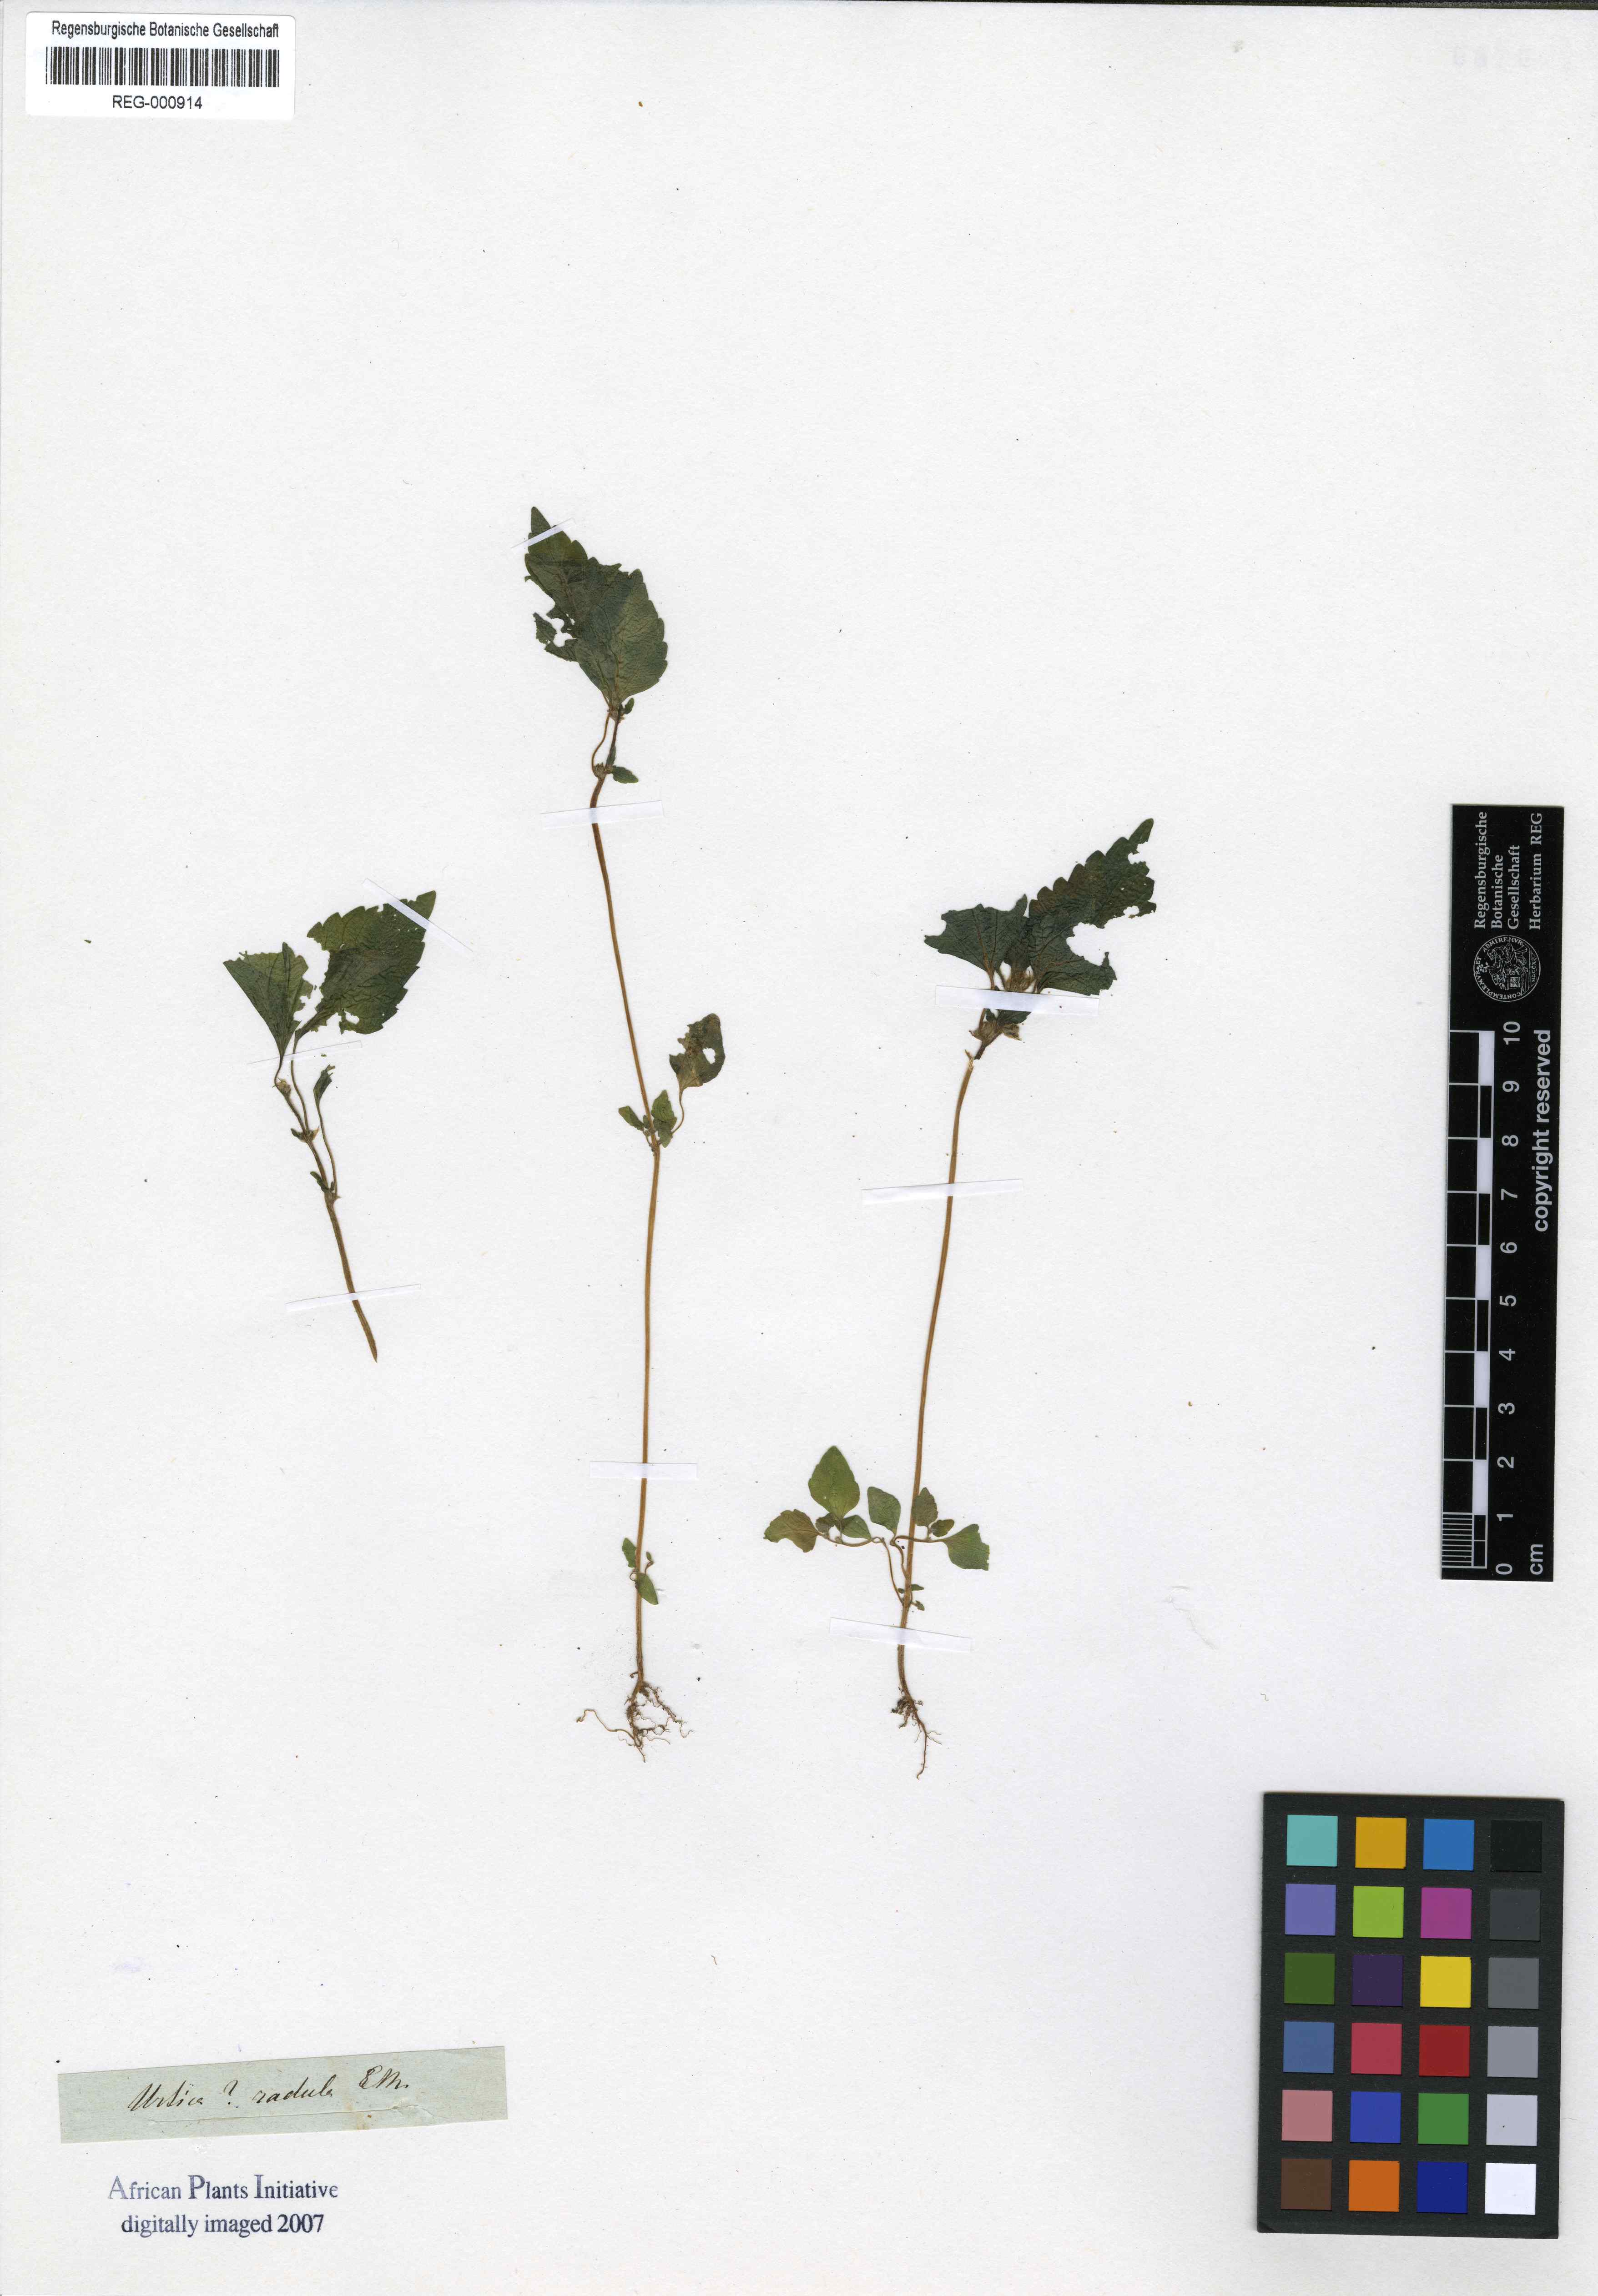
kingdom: Plantae
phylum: Tracheophyta
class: Magnoliopsida
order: Rosales
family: Urticaceae
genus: Didymodoxa
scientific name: Didymodoxa capensis
